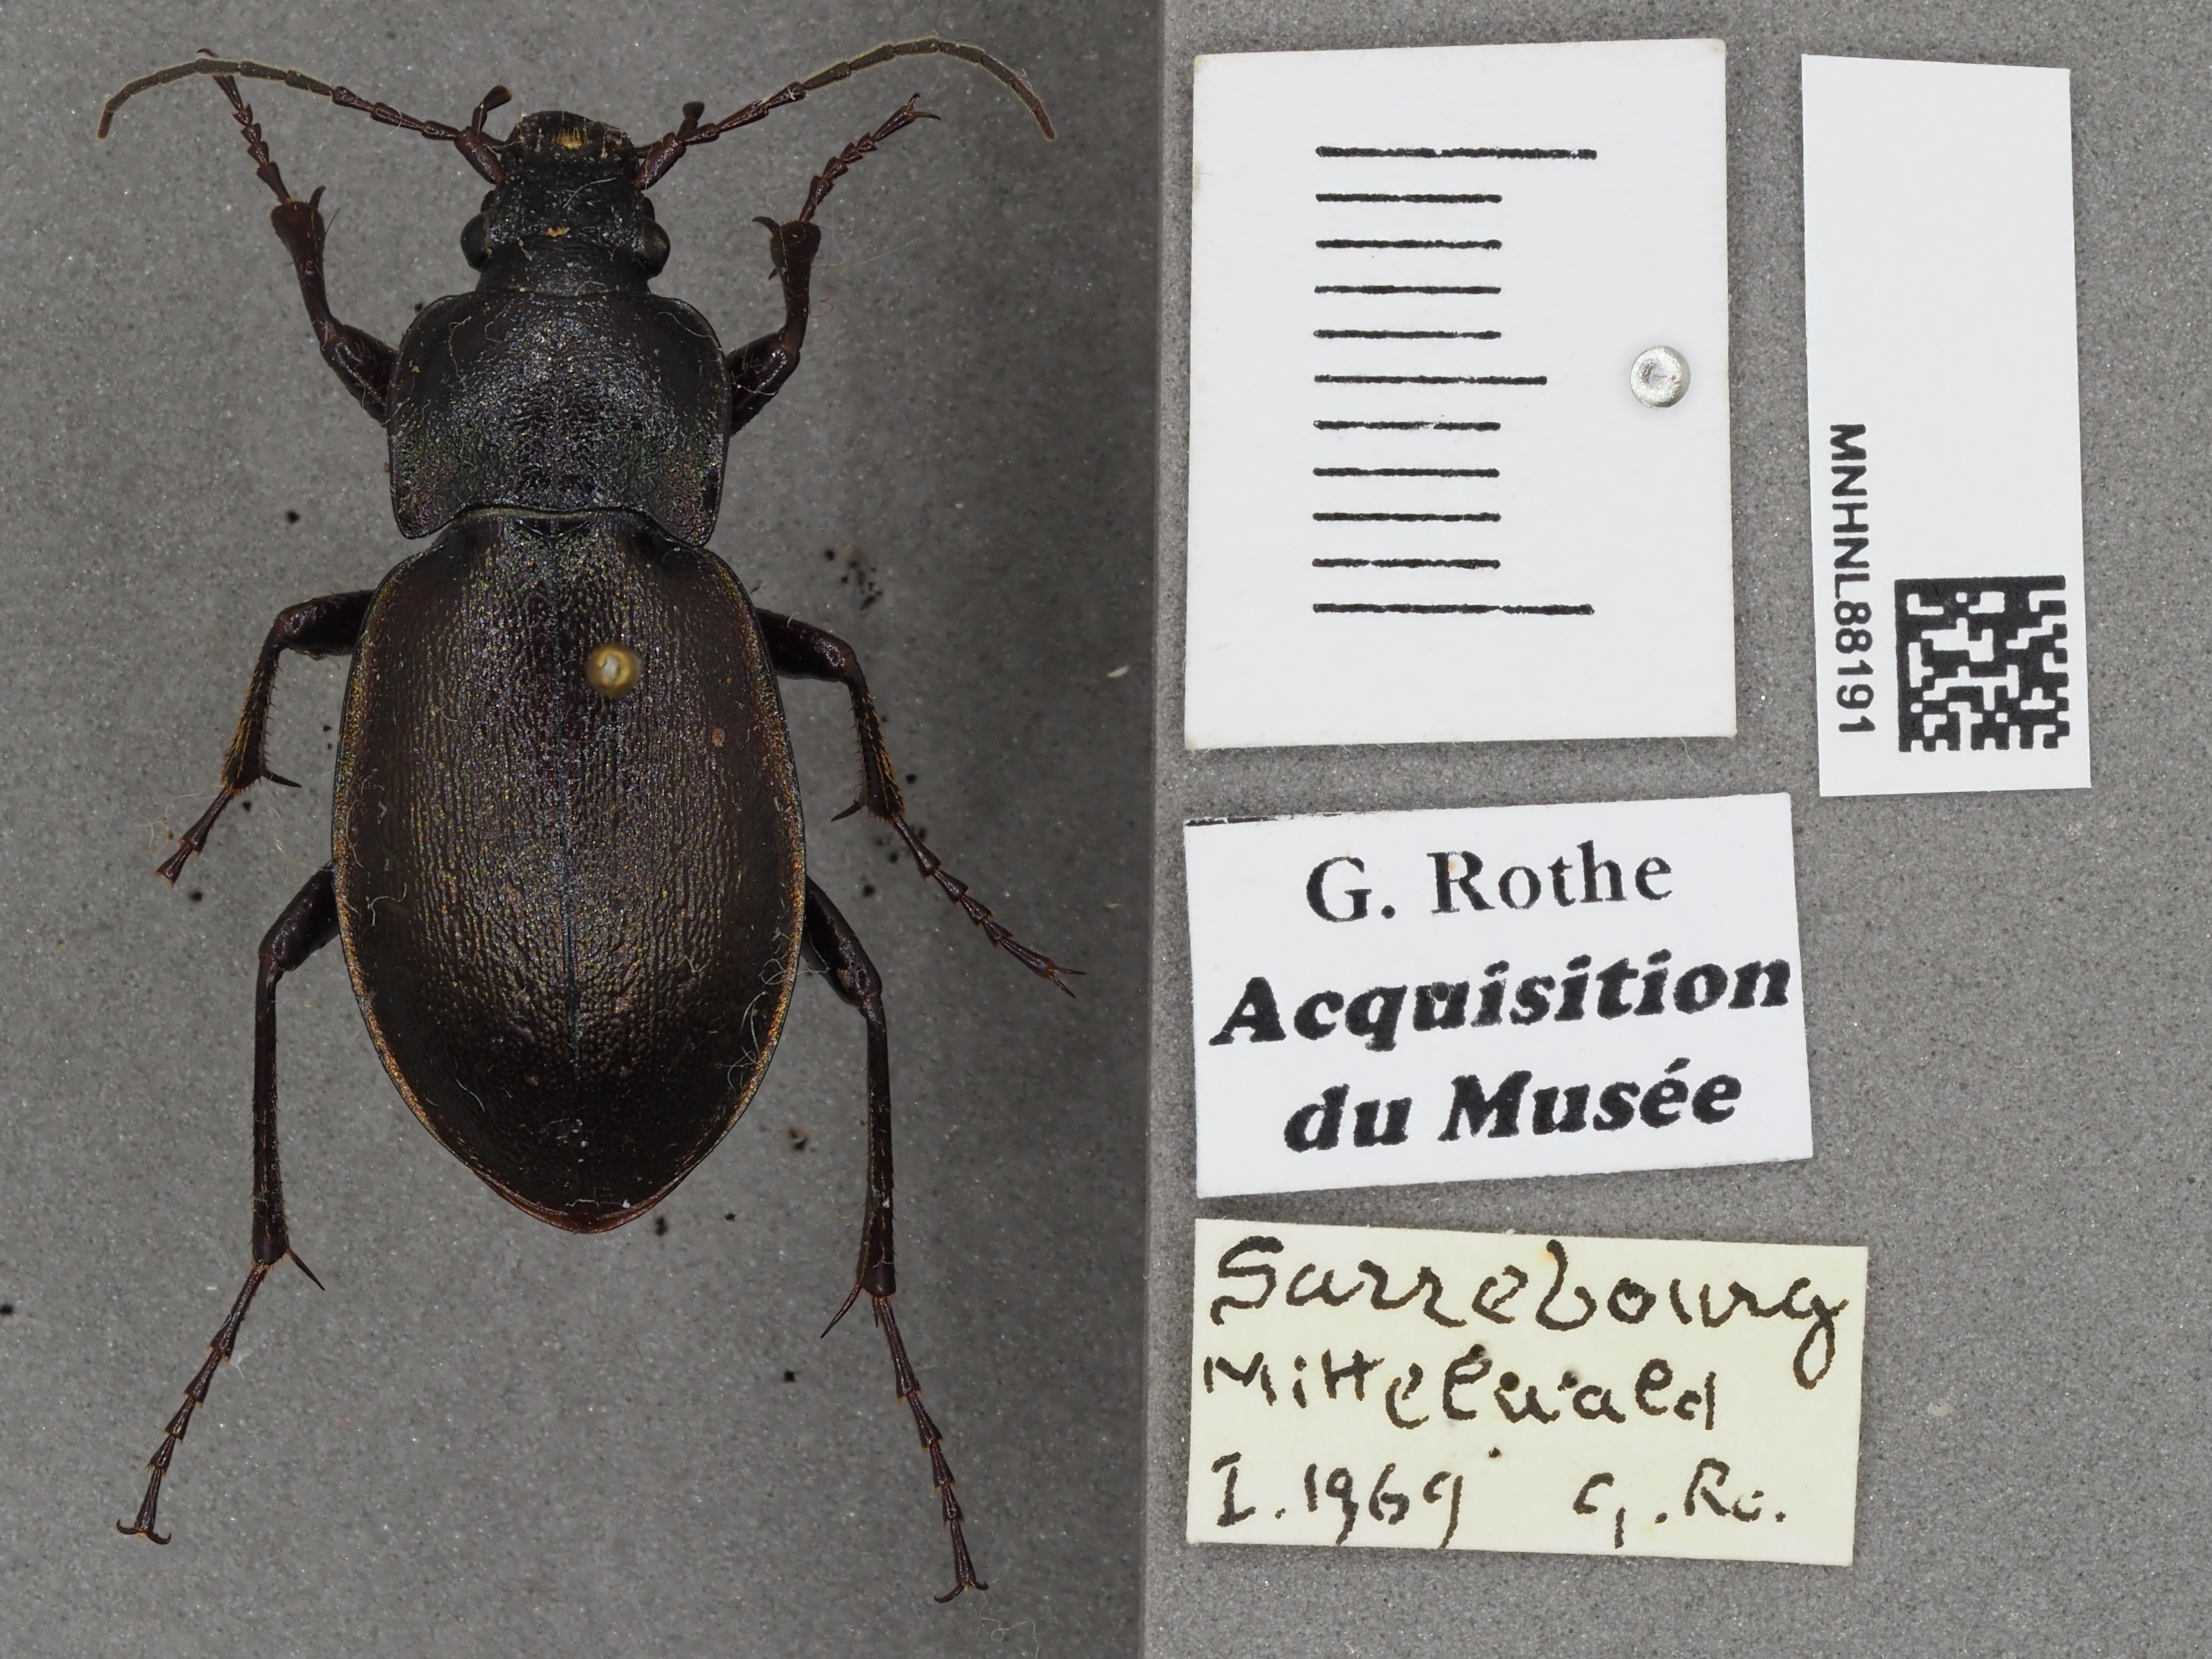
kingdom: Animalia
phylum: Arthropoda
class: Insecta
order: Coleoptera
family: Carabidae
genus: Carabus
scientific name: Carabus nemoralis
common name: European ground beetle
